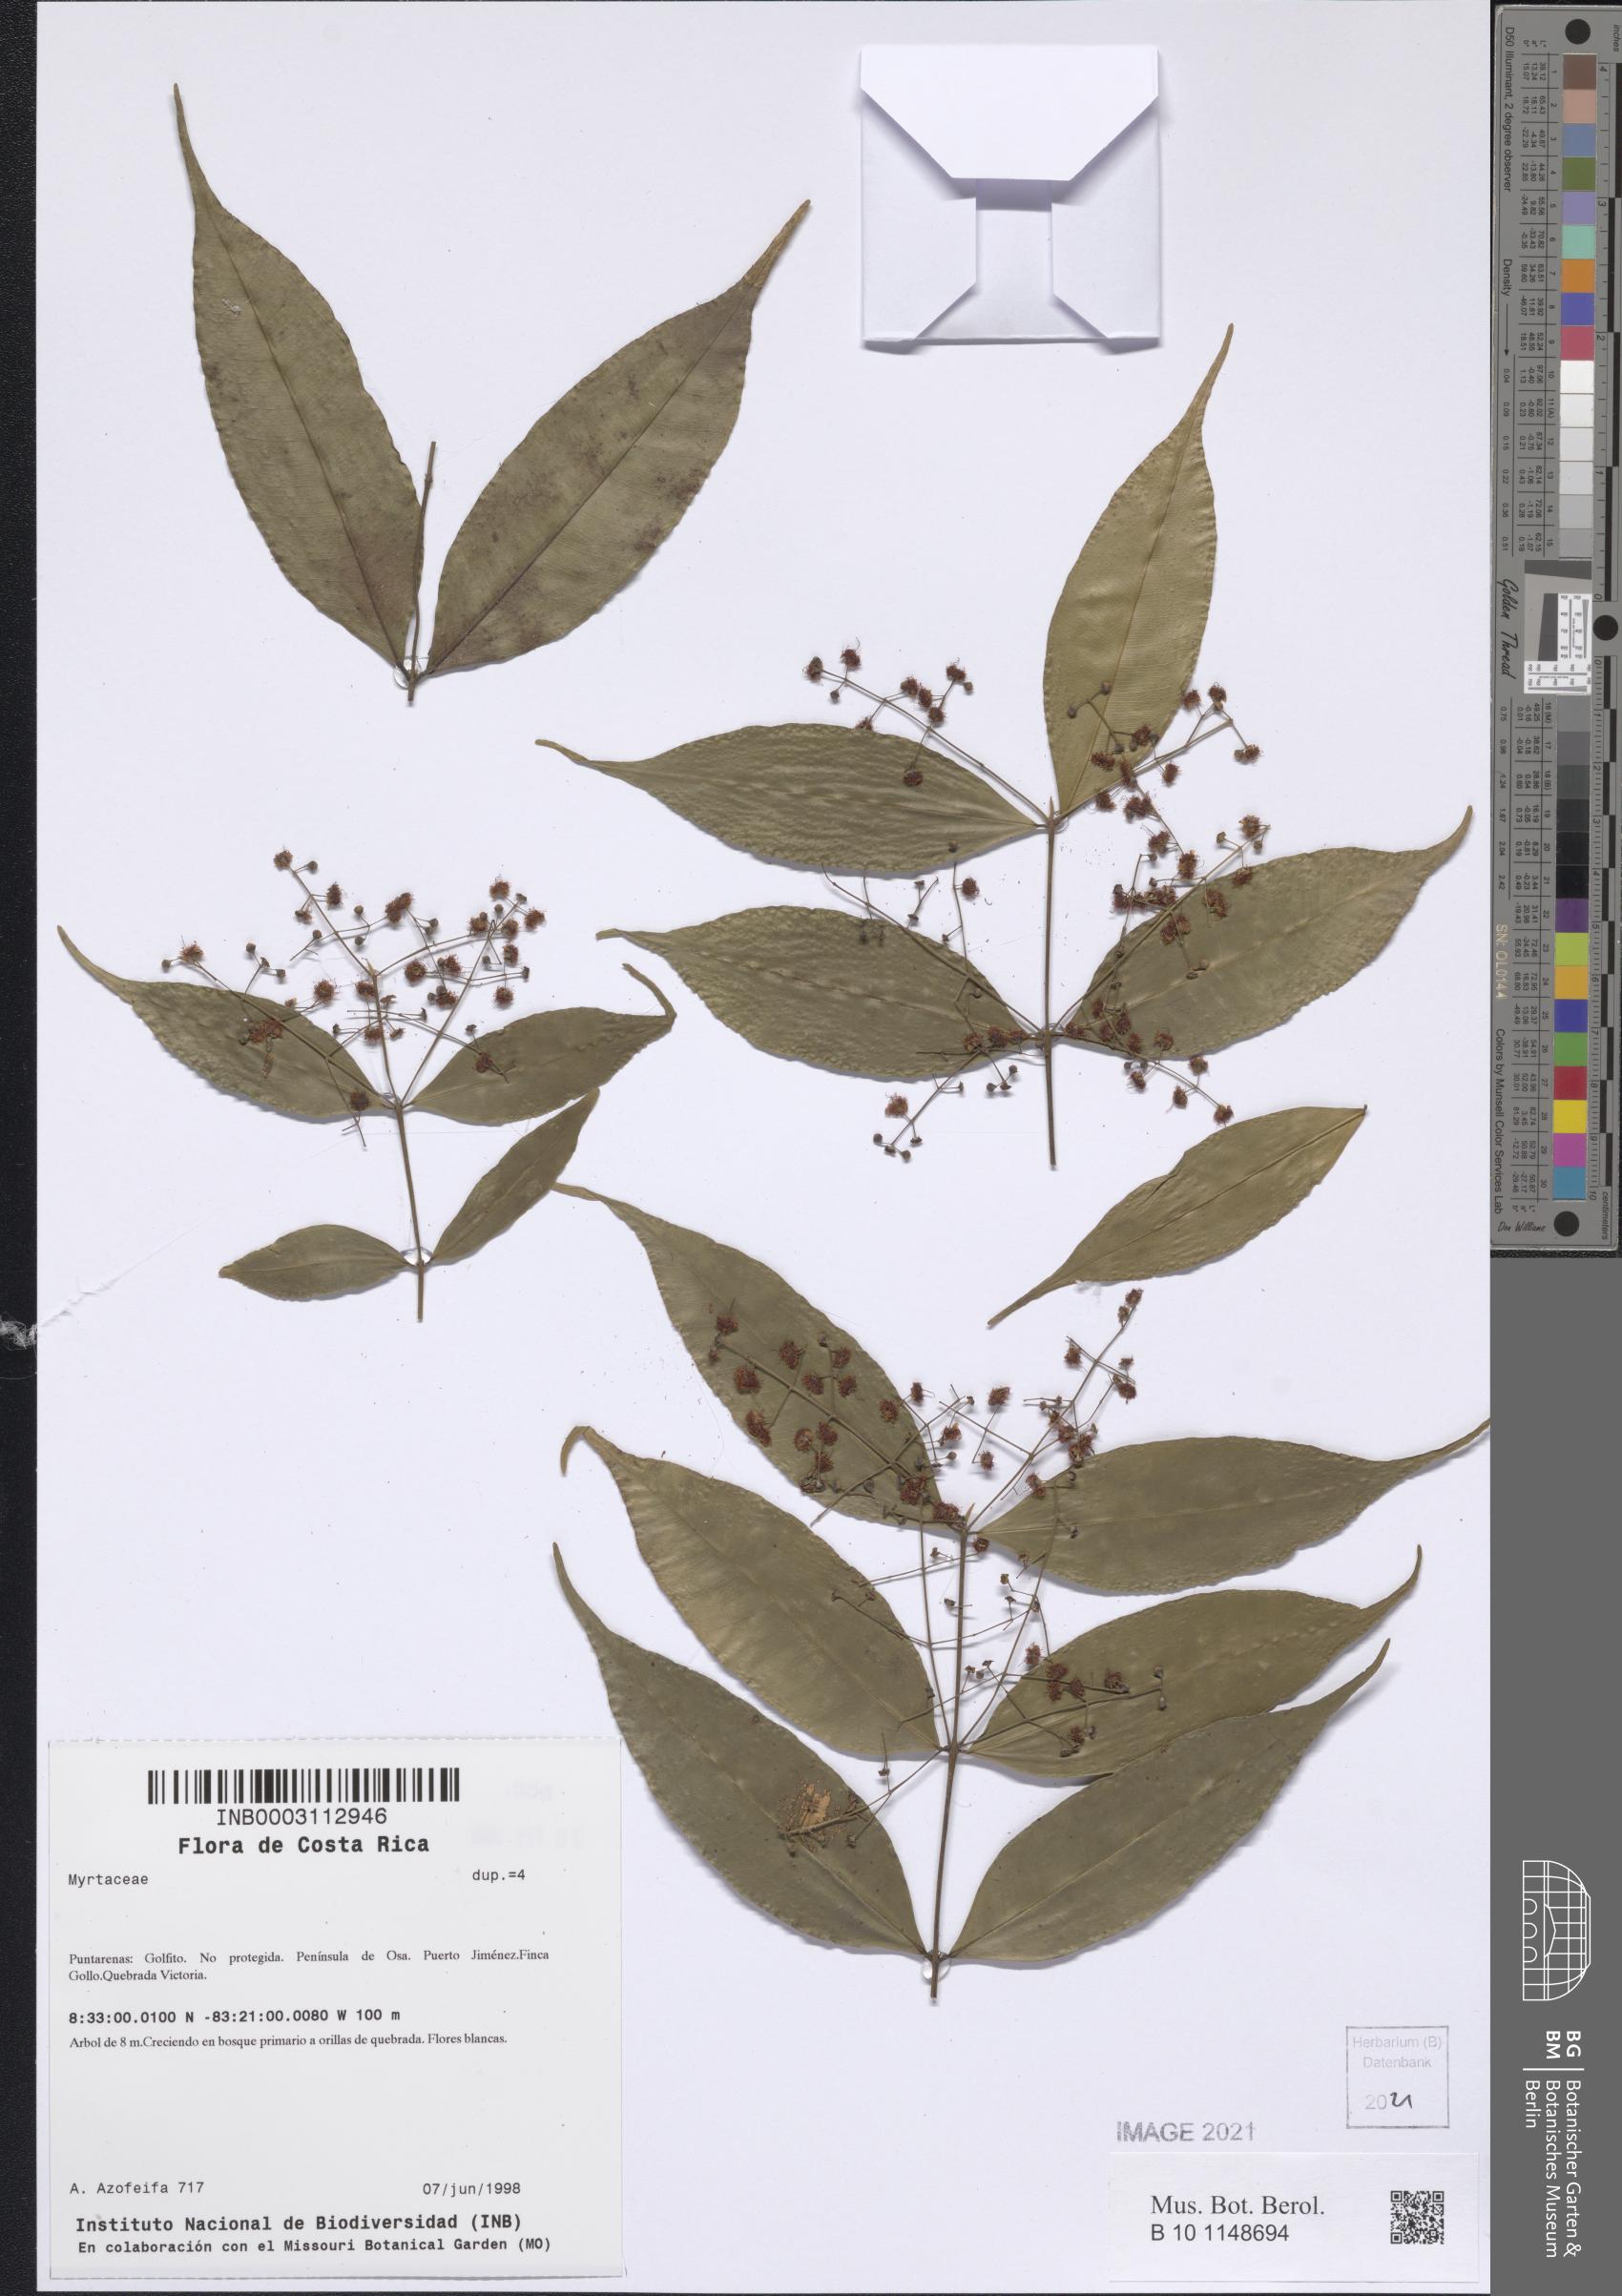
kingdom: Plantae
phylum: Tracheophyta
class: Magnoliopsida
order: Myrtales
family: Myrtaceae
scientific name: Myrtaceae
